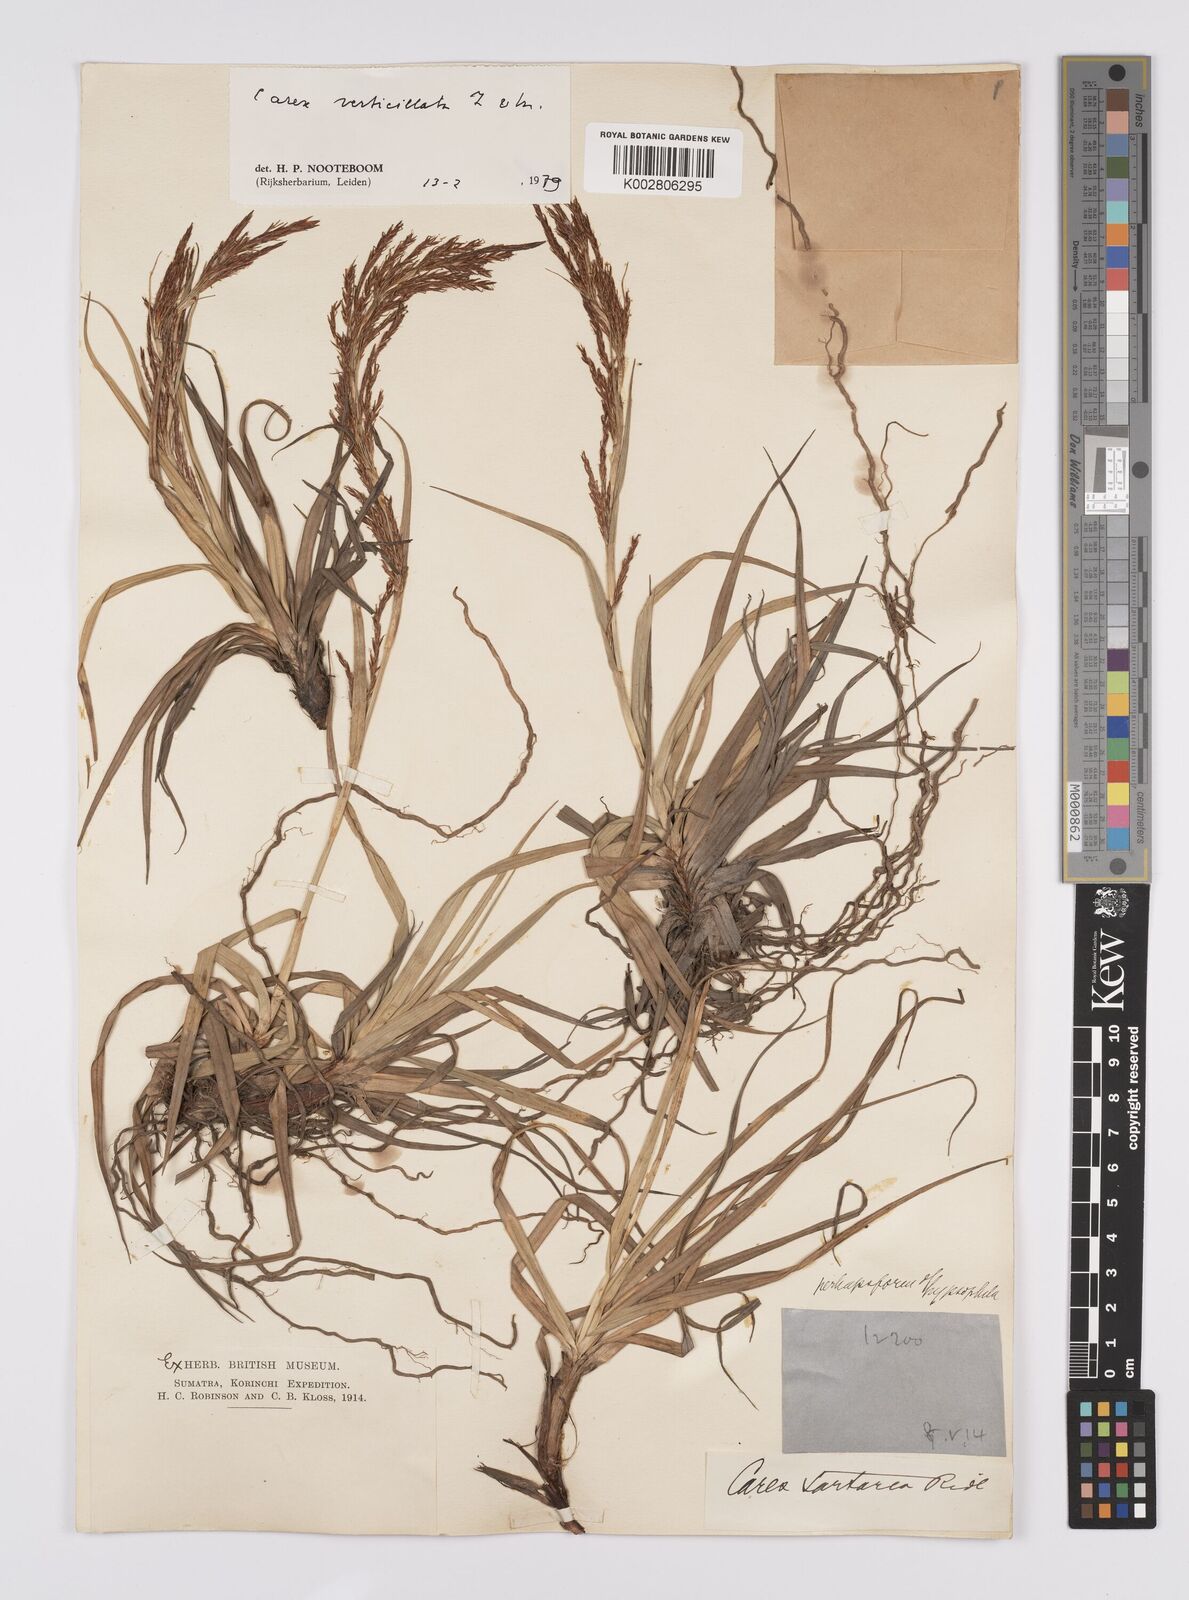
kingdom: Plantae
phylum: Tracheophyta
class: Liliopsida
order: Poales
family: Cyperaceae
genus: Carex
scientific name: Carex verticillata
